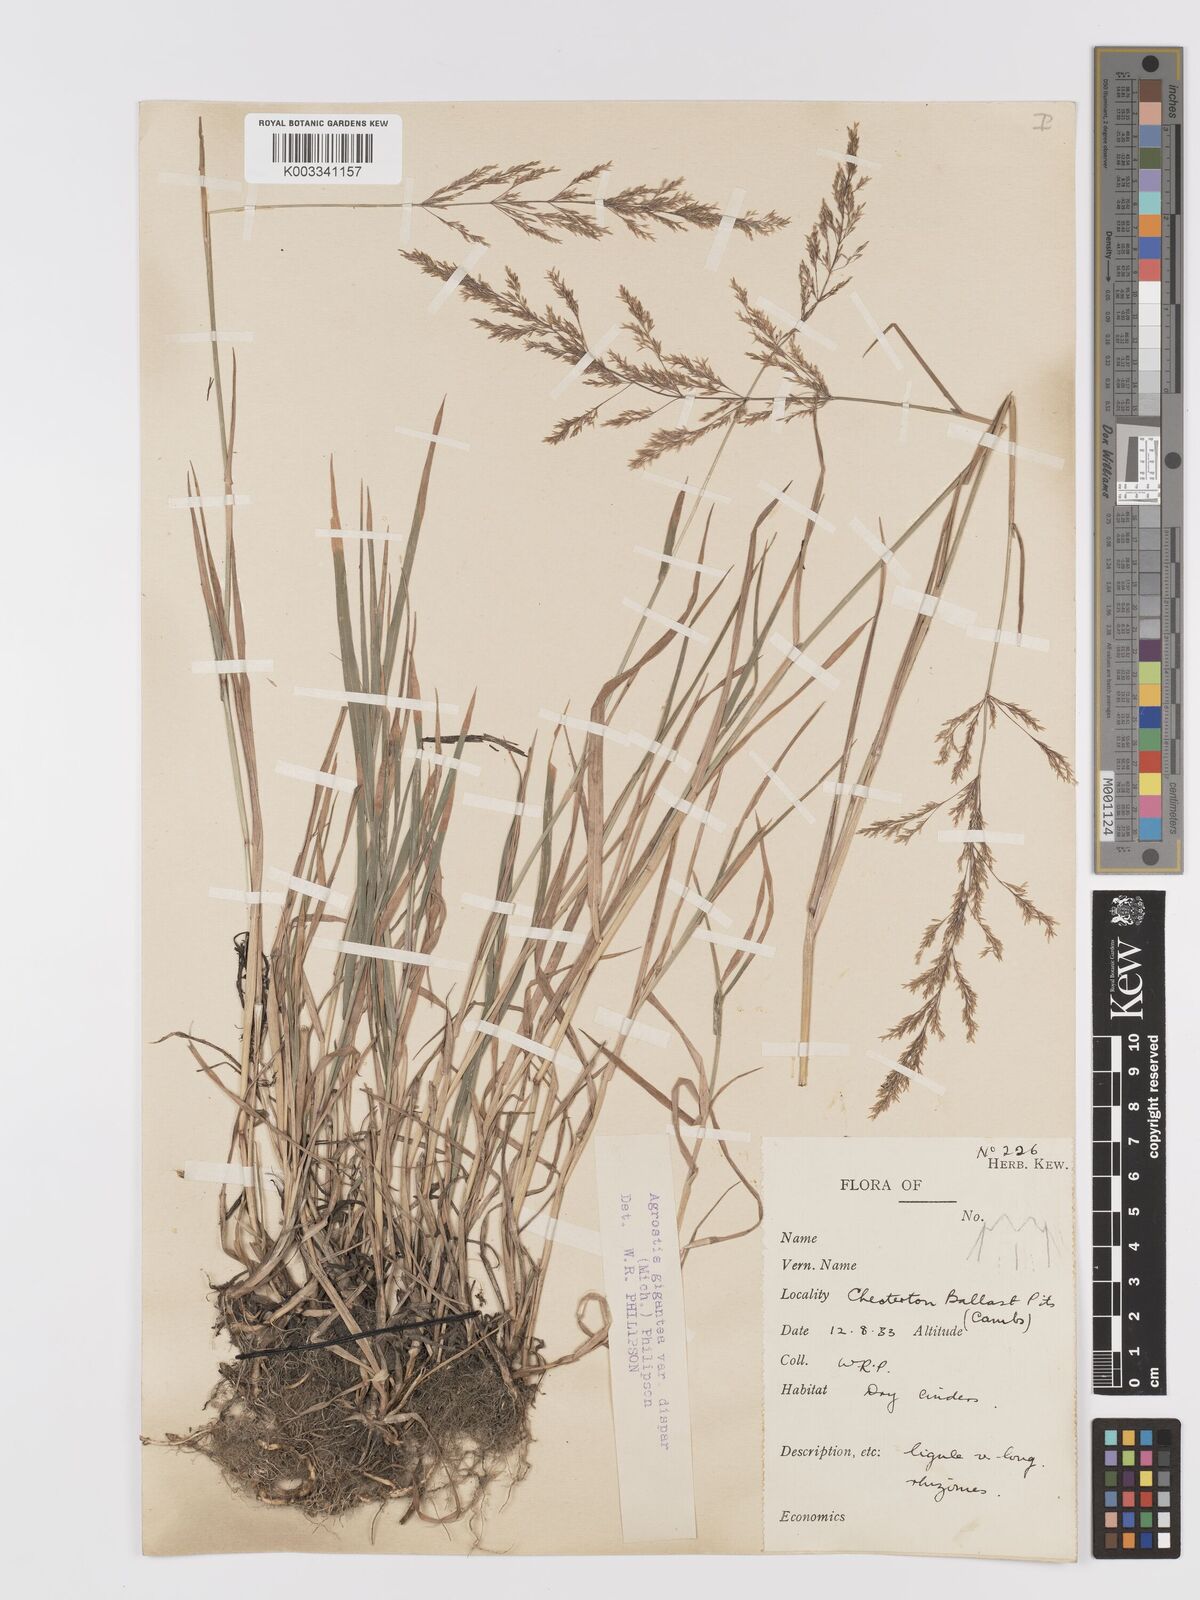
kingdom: Plantae
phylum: Tracheophyta
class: Liliopsida
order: Poales
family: Poaceae
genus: Agrostis
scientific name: Agrostis gigantea
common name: Black bent
